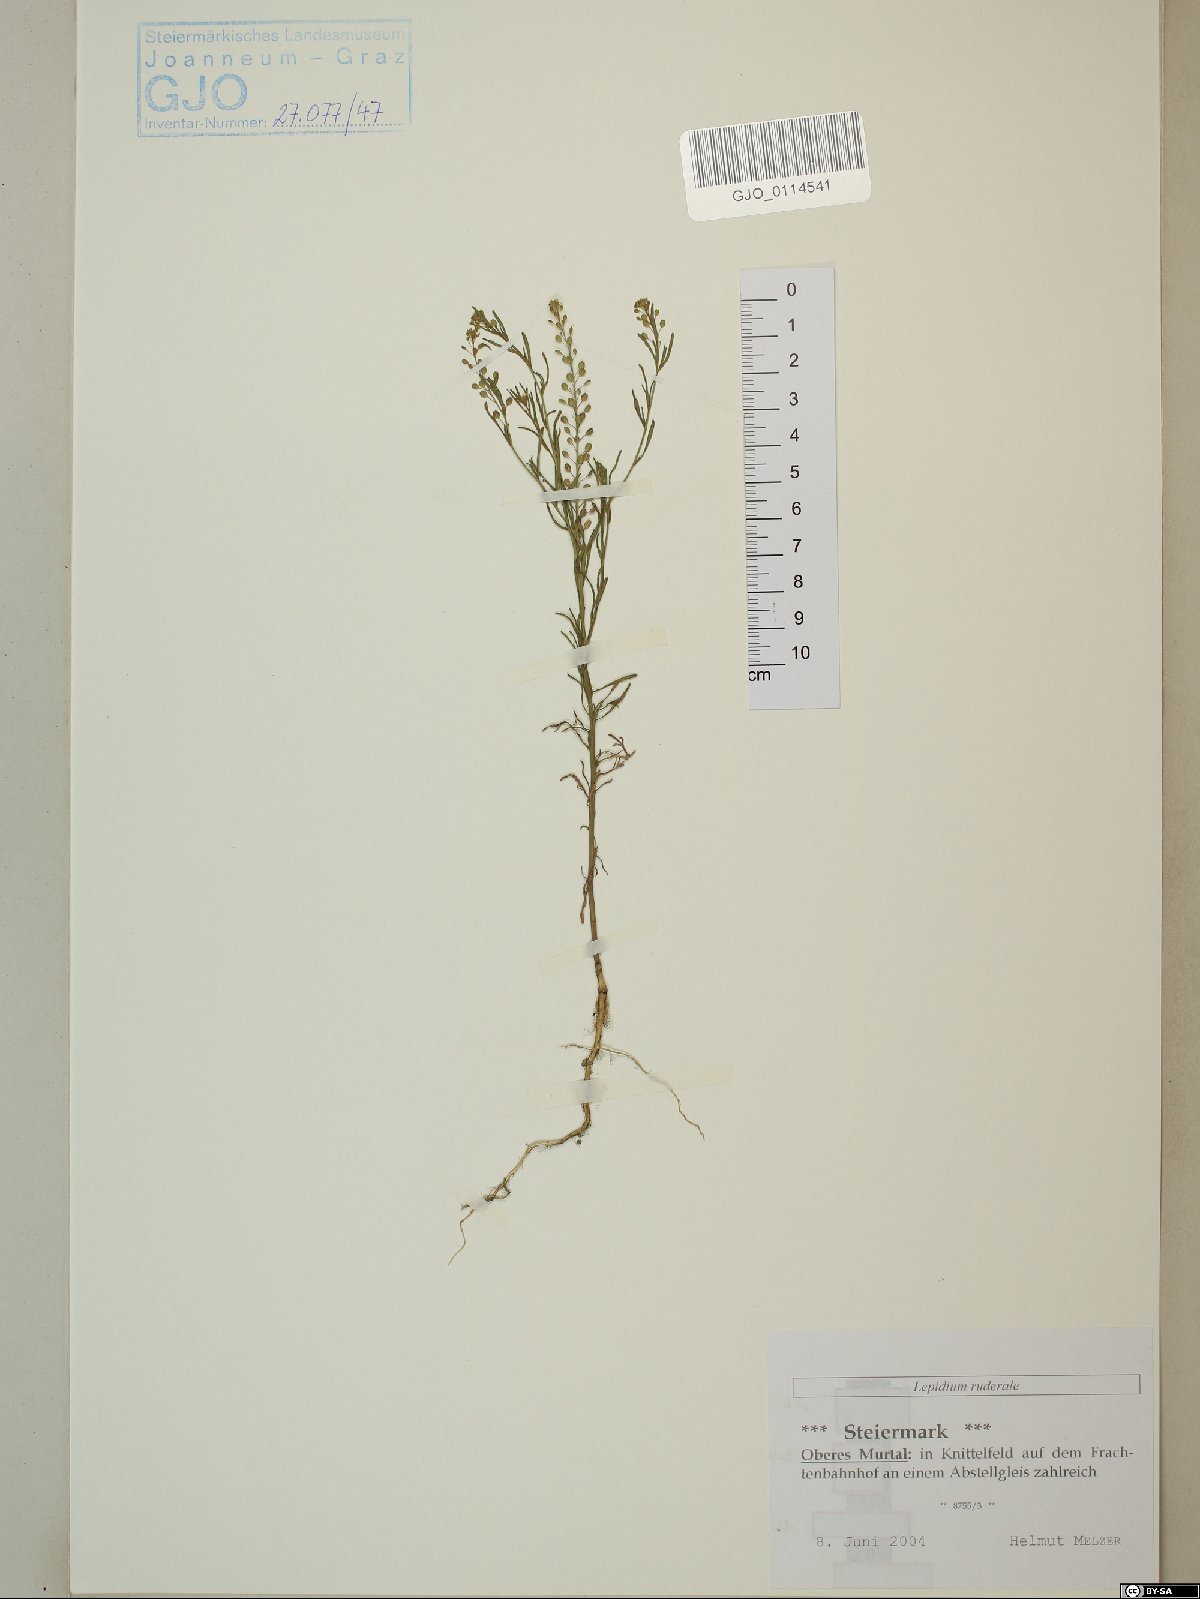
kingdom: Plantae
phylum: Tracheophyta
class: Magnoliopsida
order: Brassicales
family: Brassicaceae
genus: Lepidium
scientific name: Lepidium ruderale
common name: Narrow-leaved pepperwort
